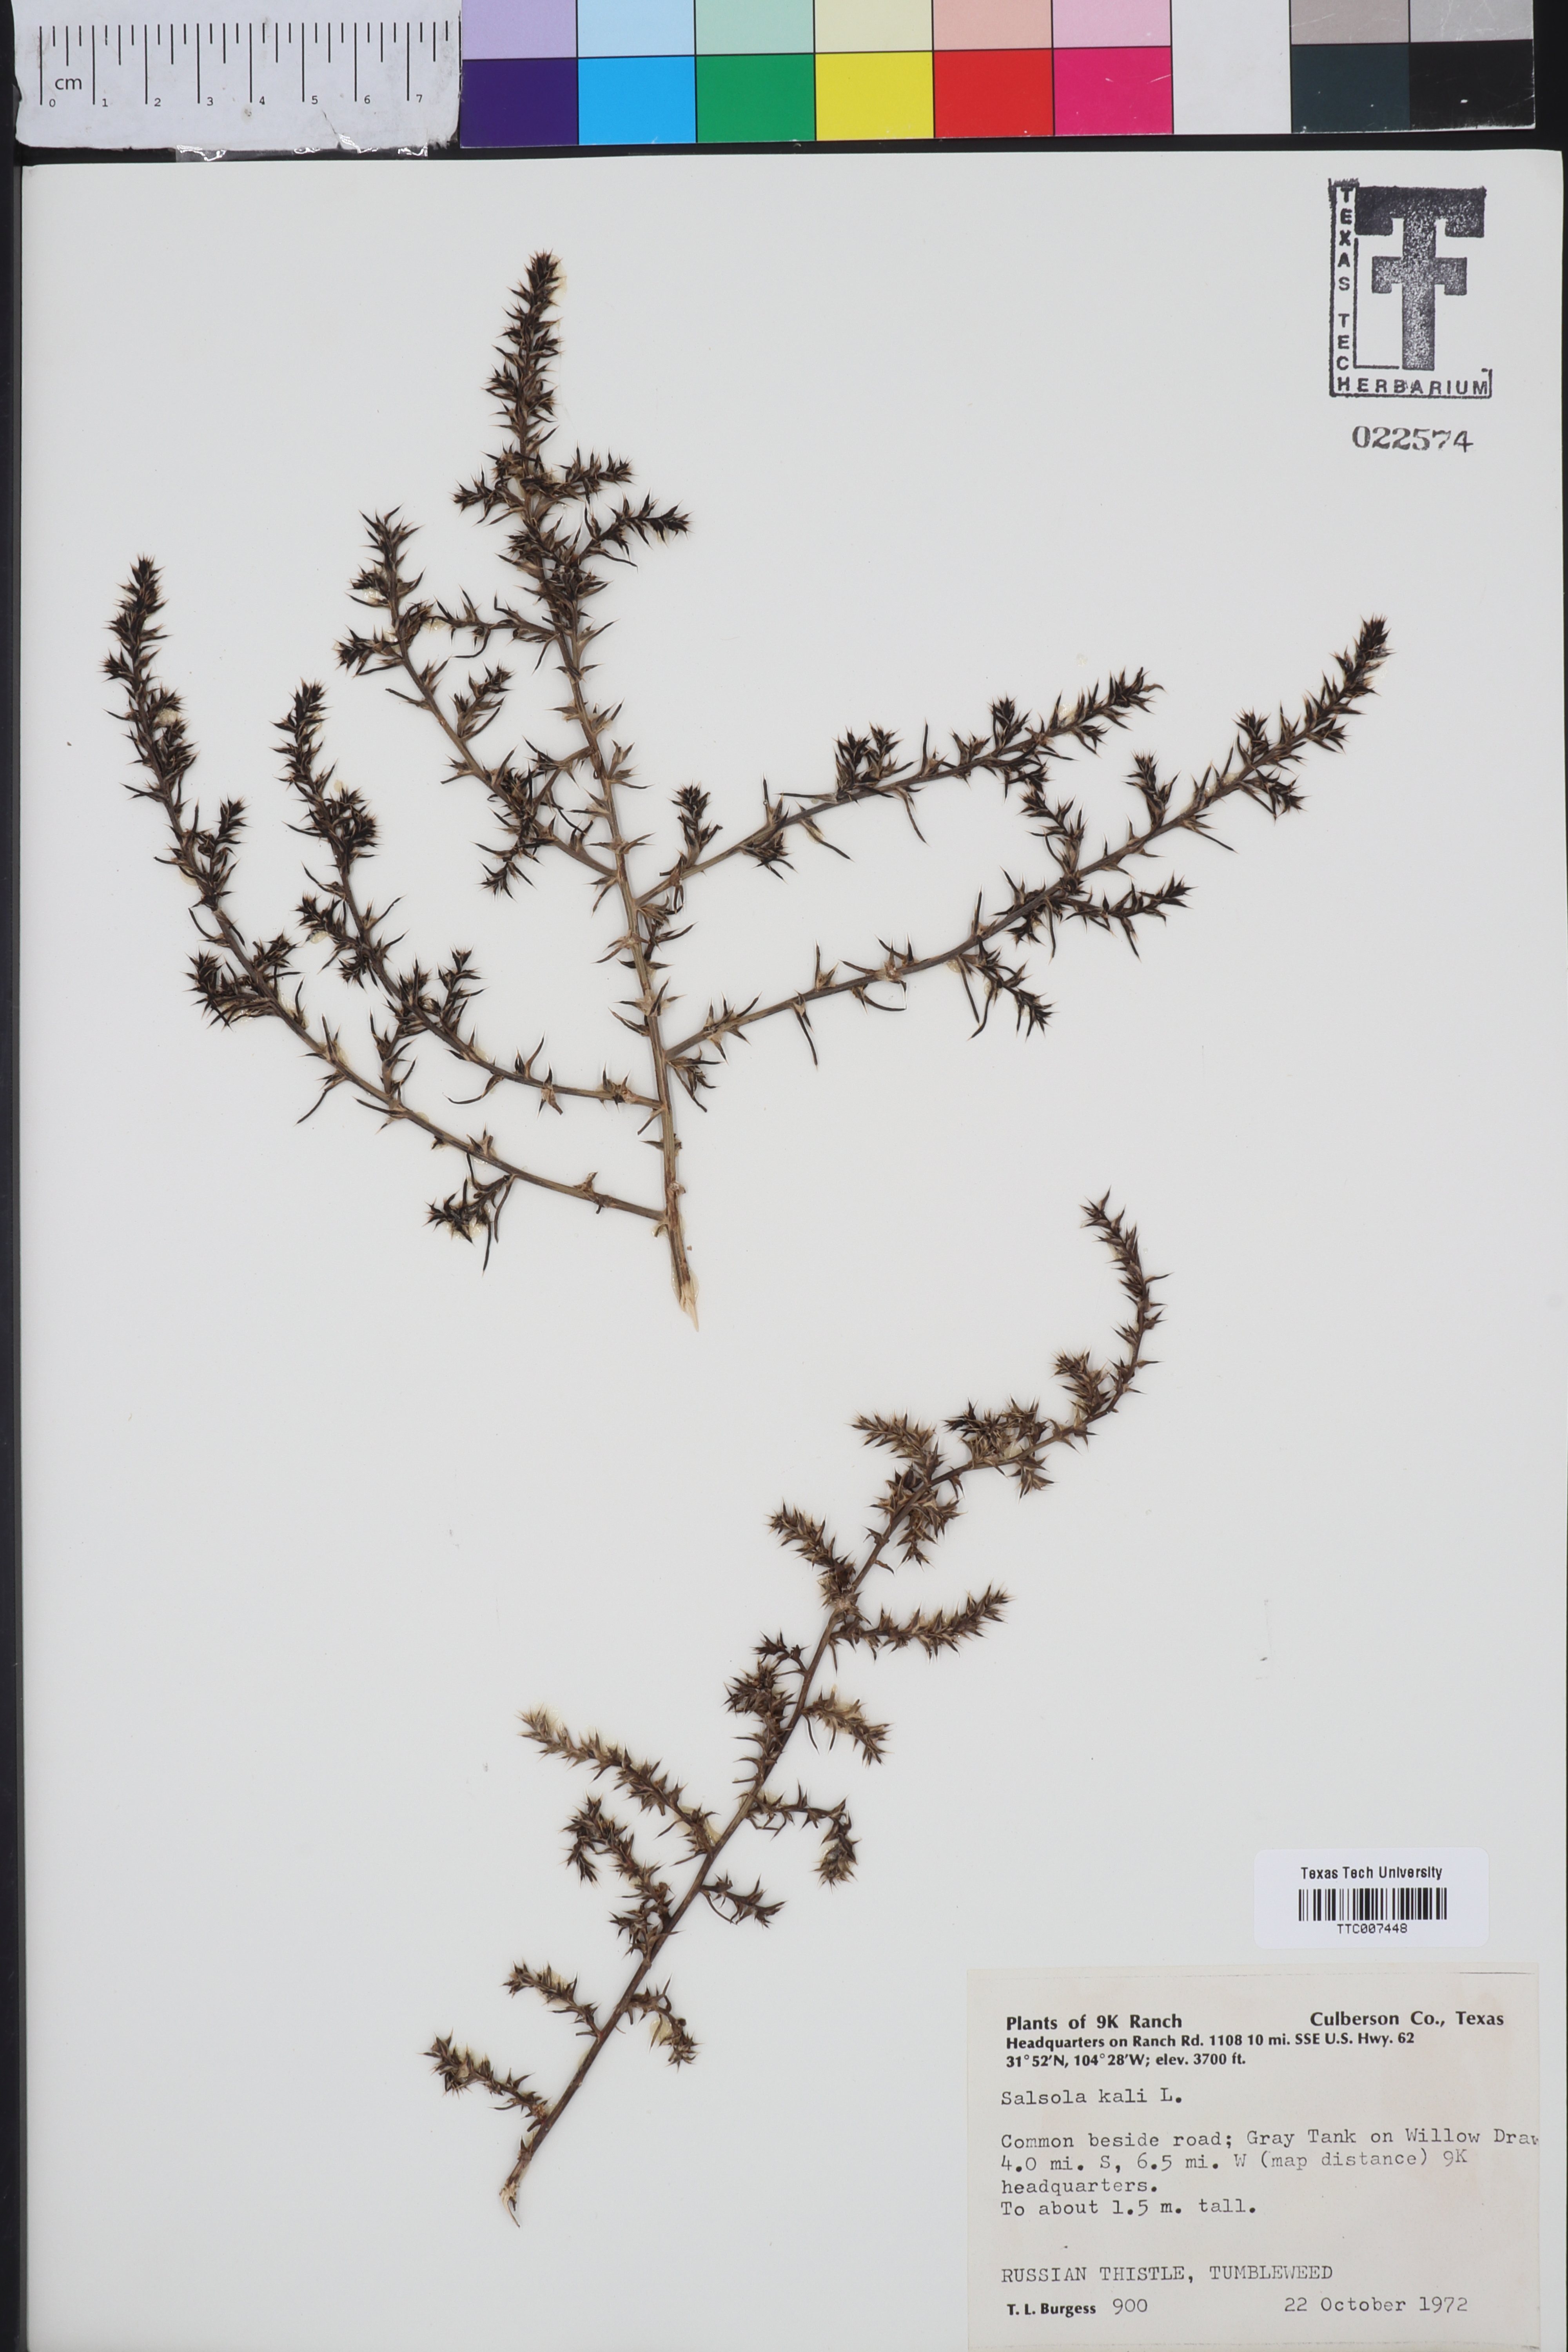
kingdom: Plantae
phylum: Tracheophyta
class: Magnoliopsida
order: Caryophyllales
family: Amaranthaceae
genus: Salsola
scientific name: Salsola kali
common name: Saltwort
